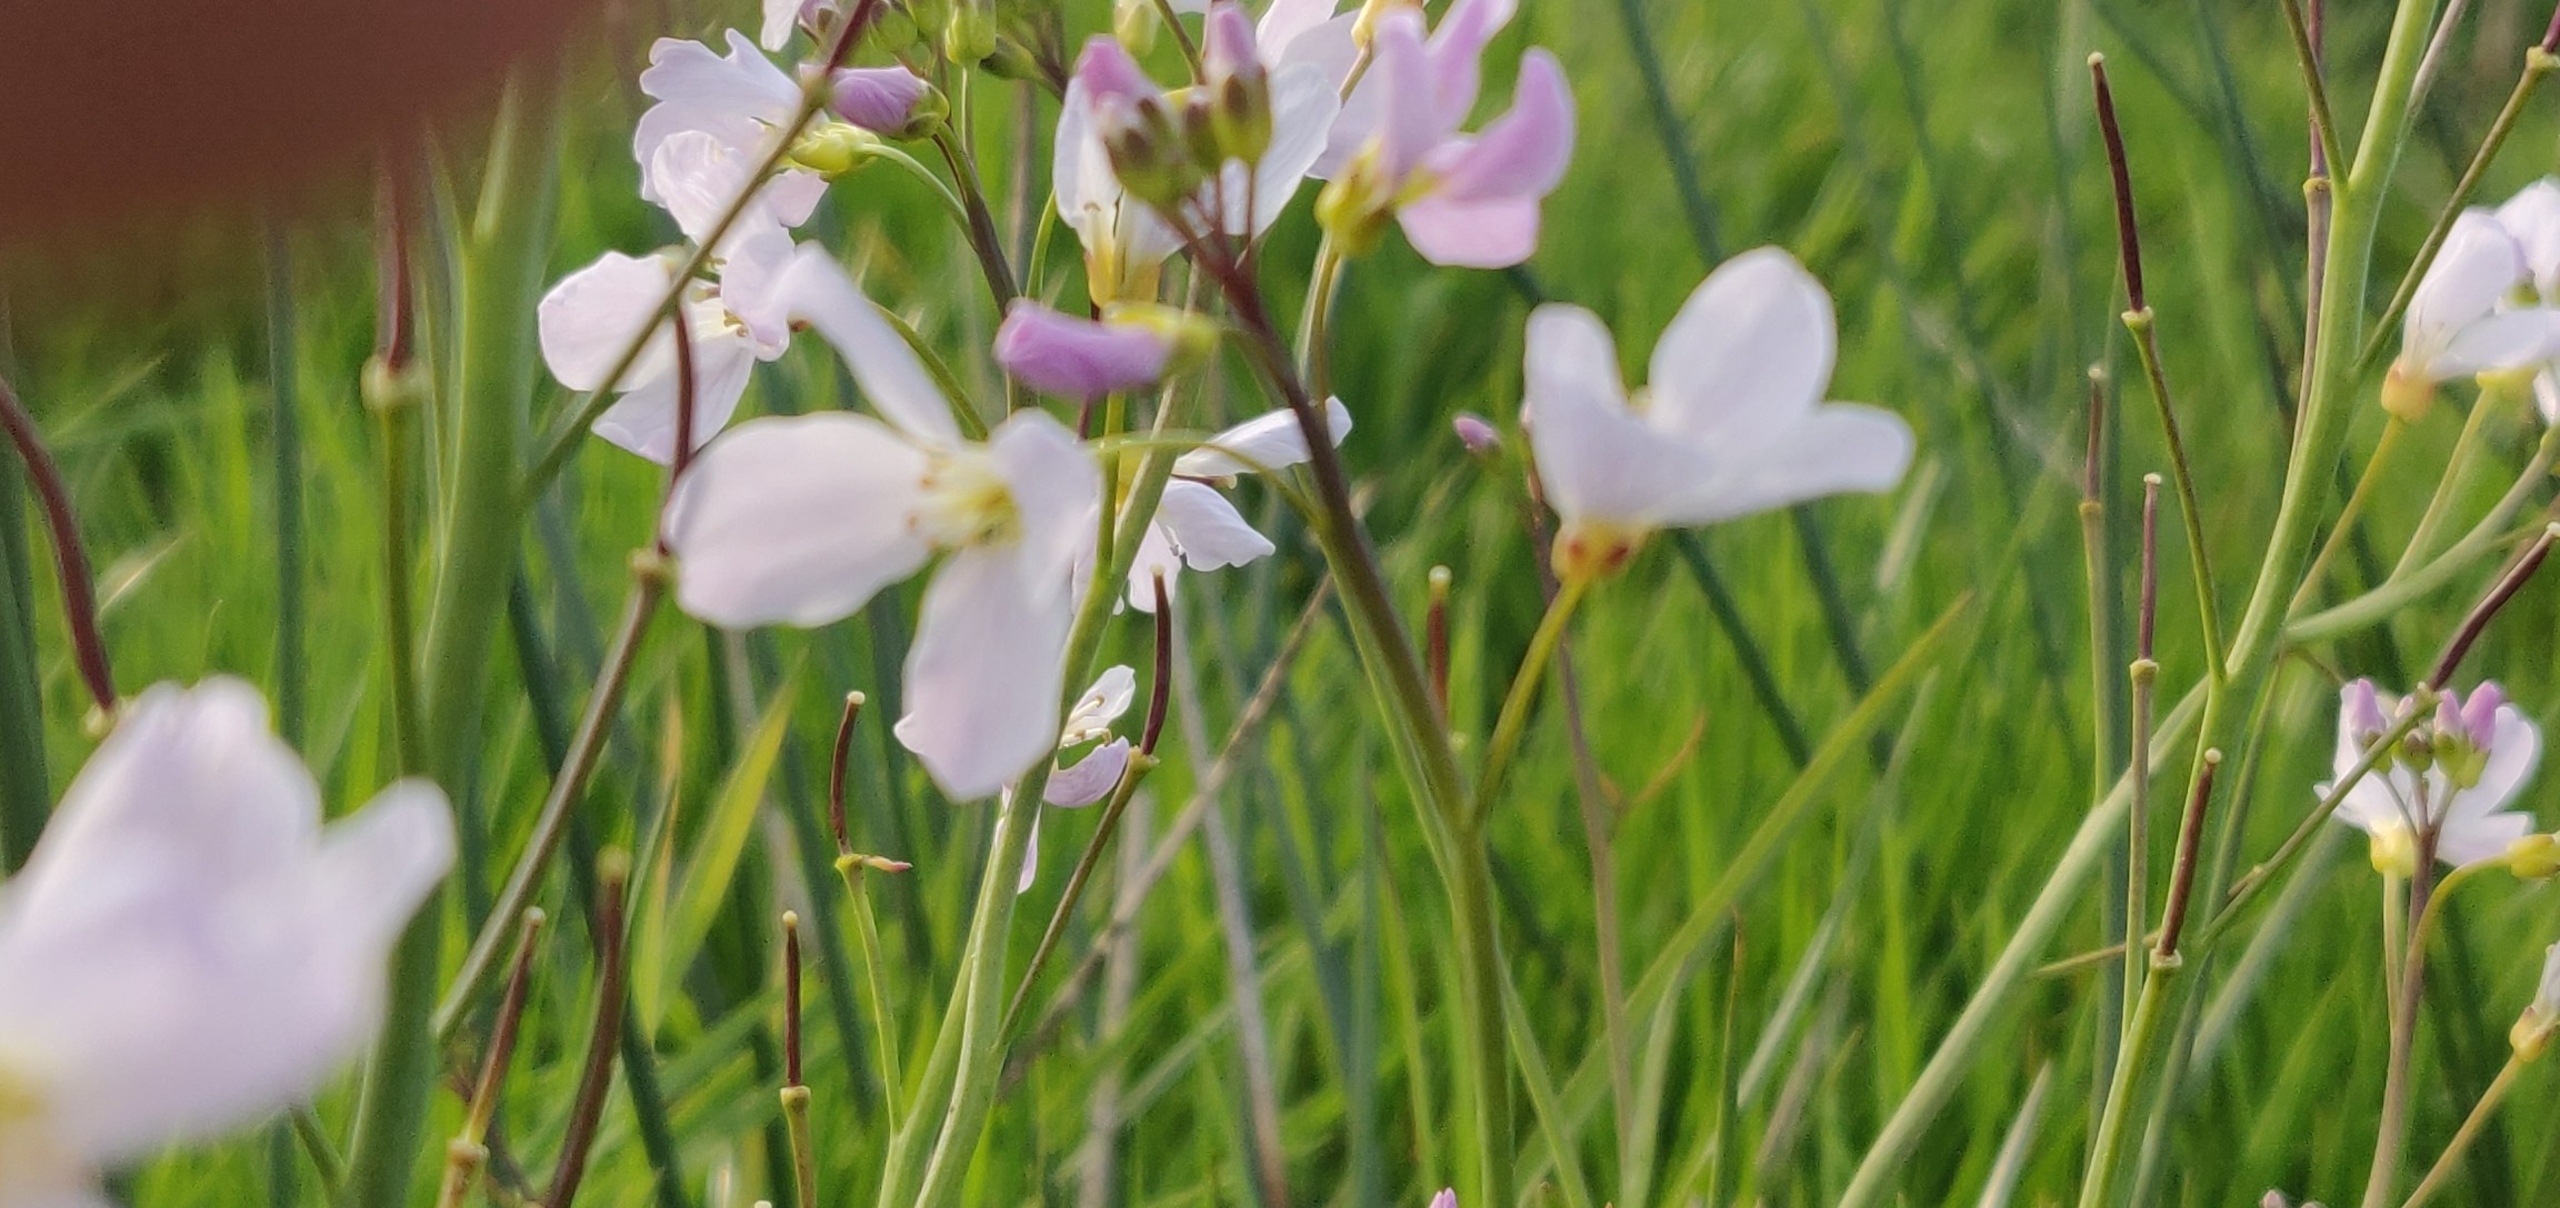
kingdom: Plantae
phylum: Tracheophyta
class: Magnoliopsida
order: Brassicales
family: Brassicaceae
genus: Cardamine
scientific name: Cardamine pratensis
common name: Engkarse
